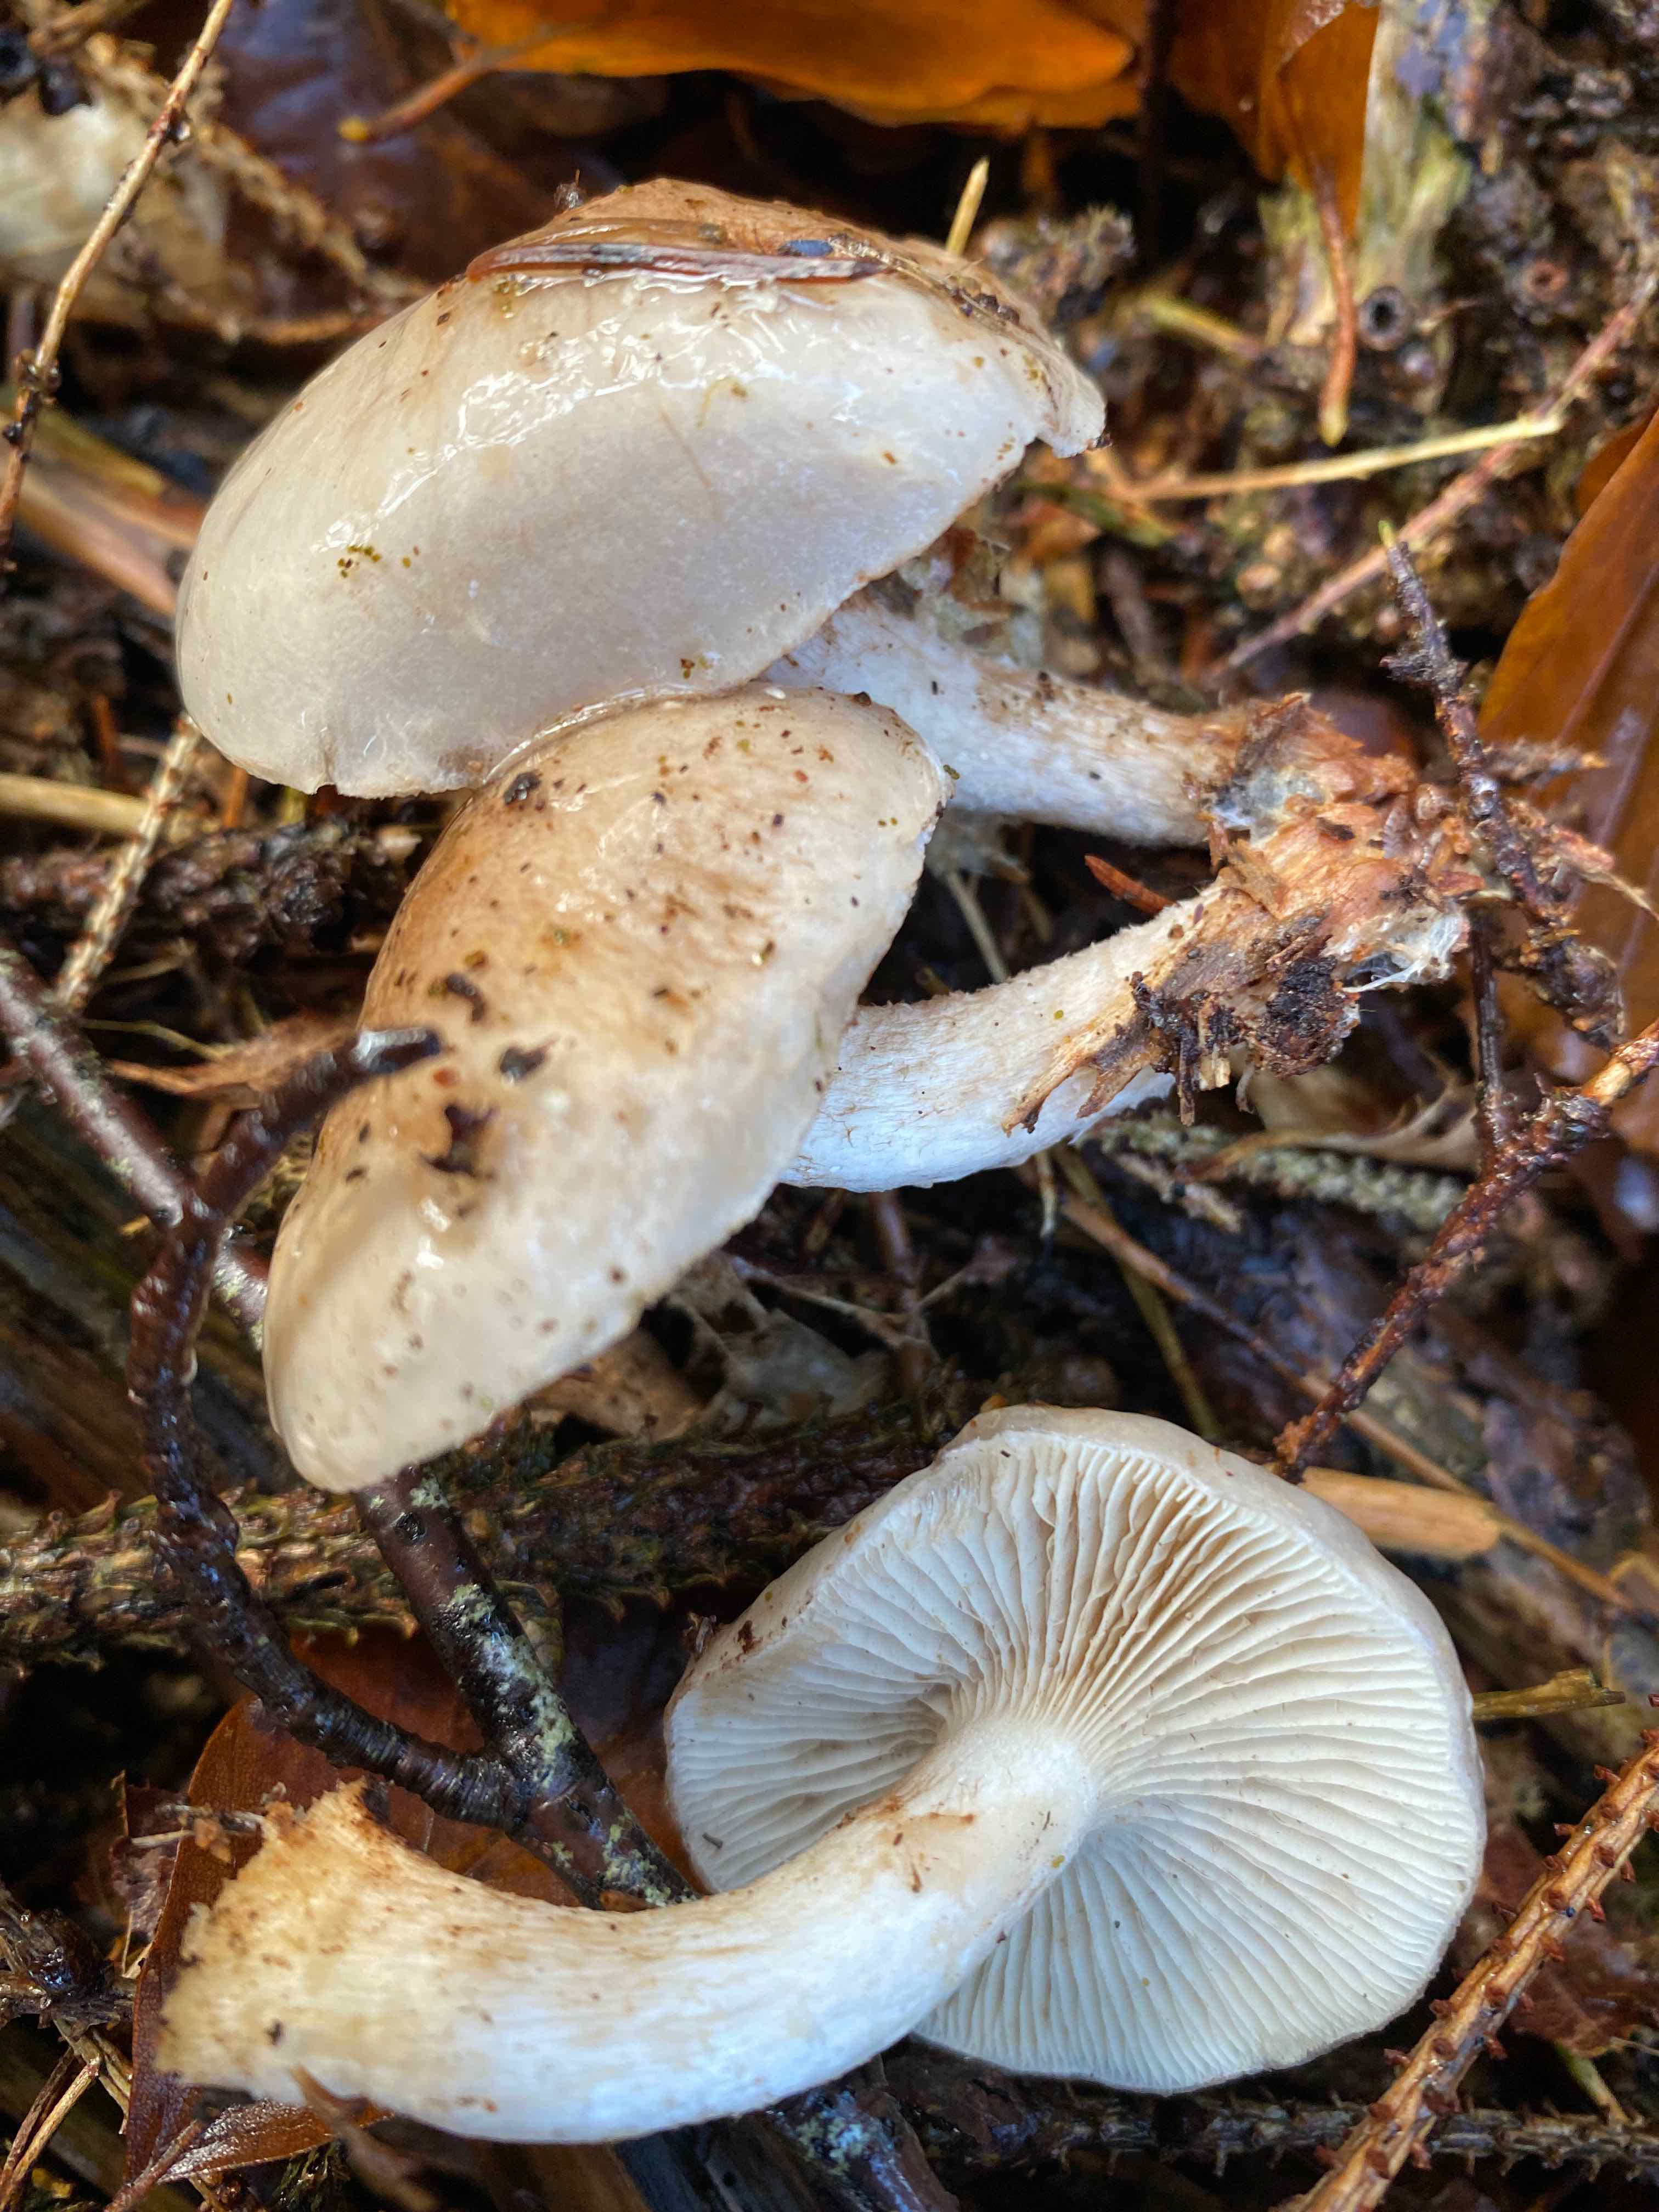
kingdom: Fungi
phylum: Basidiomycota
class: Agaricomycetes
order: Agaricales
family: Strophariaceae
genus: Pholiota
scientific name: Pholiota lenta
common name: løv-skælhat
